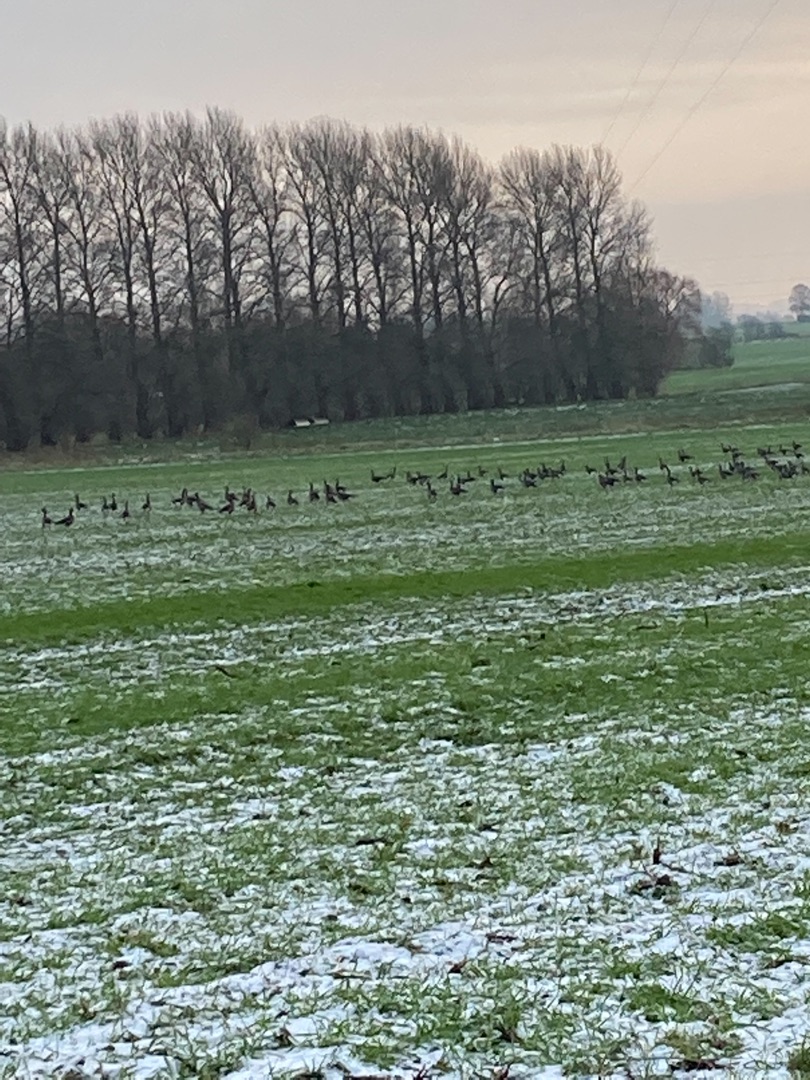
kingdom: Animalia
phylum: Chordata
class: Aves
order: Anseriformes
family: Anatidae
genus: Anser
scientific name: Anser anser
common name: Grågås
